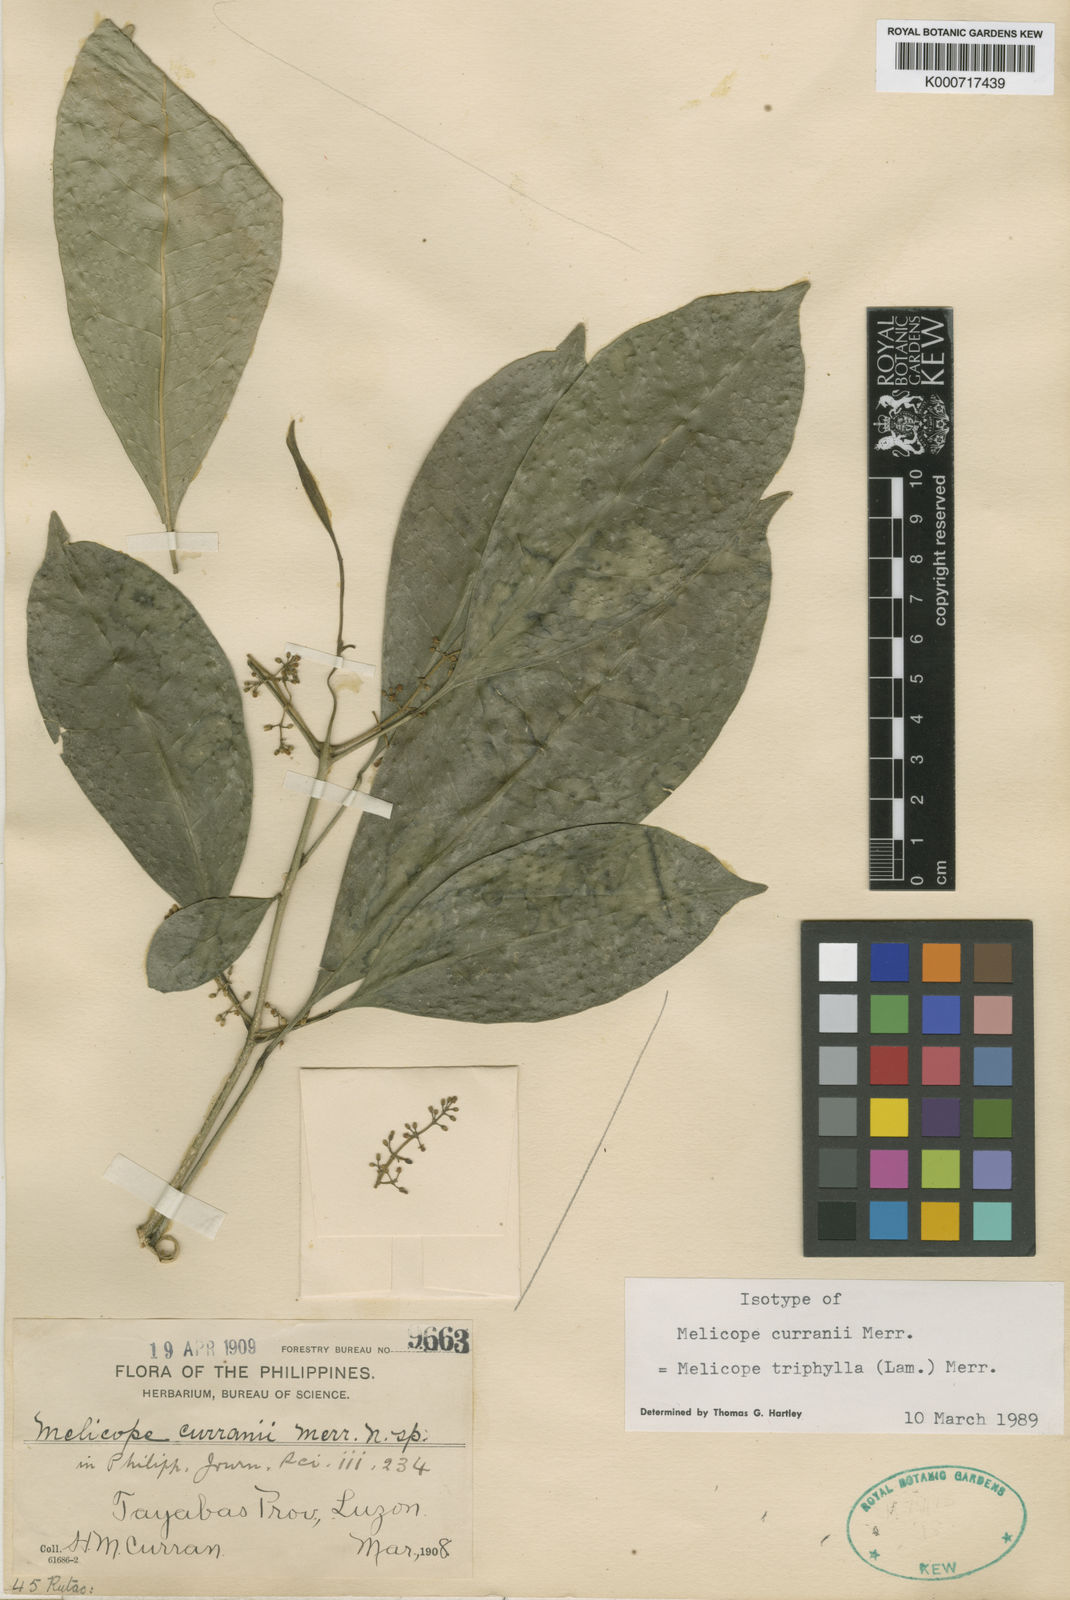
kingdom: Plantae
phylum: Tracheophyta
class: Magnoliopsida
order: Sapindales
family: Rutaceae
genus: Melicope
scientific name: Melicope triphylla
